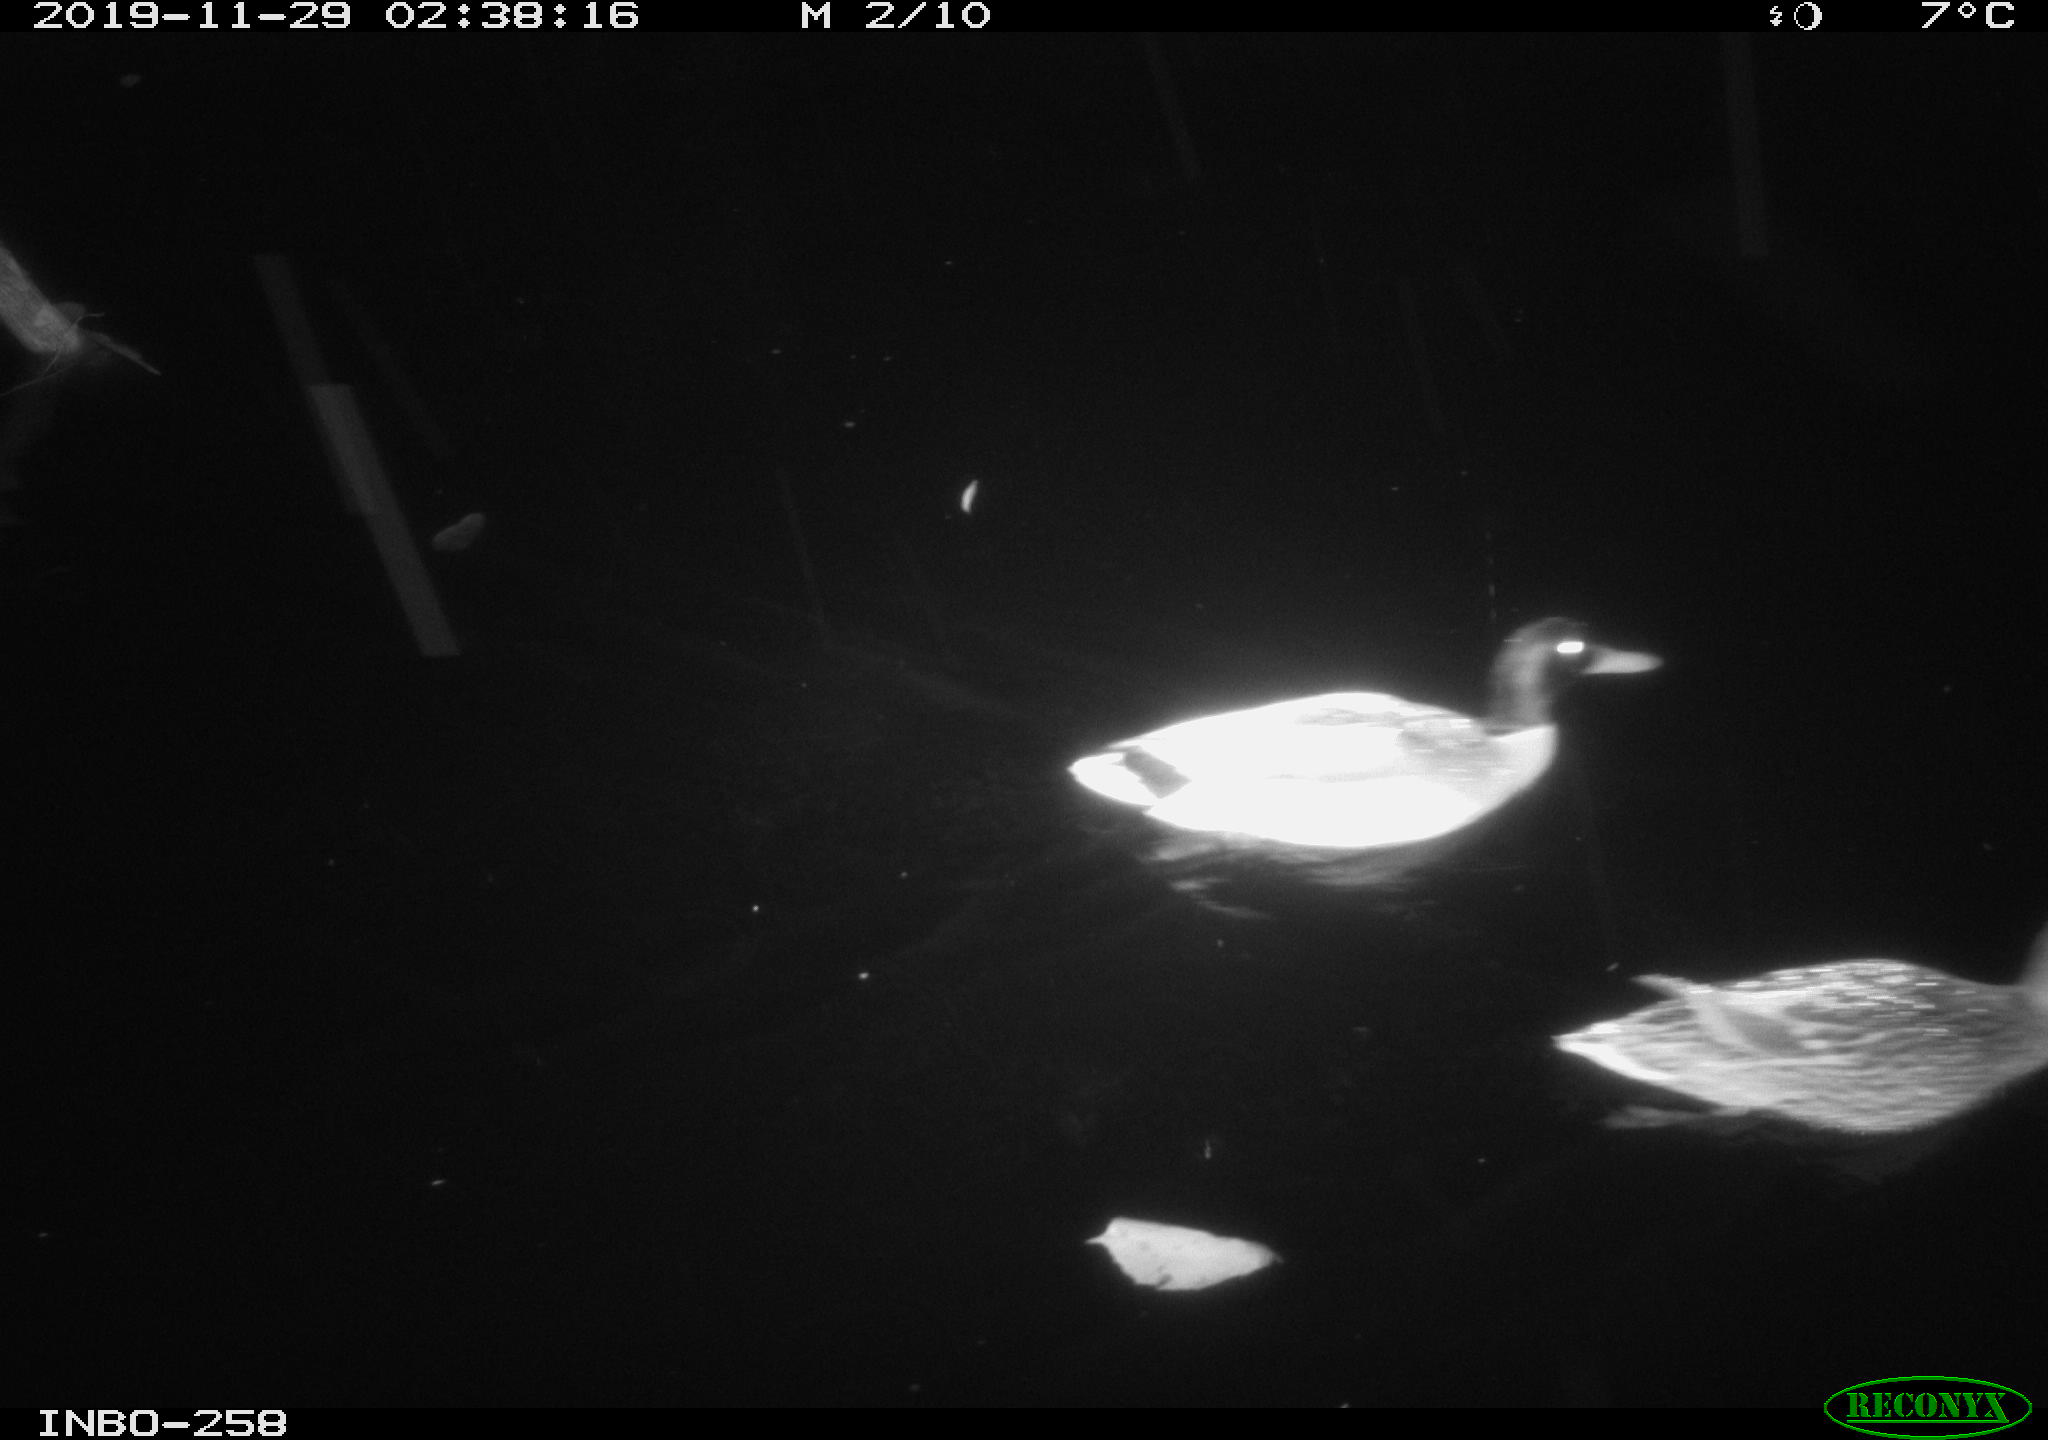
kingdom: Animalia
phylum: Chordata
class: Aves
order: Anseriformes
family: Anatidae
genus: Anas
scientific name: Anas platyrhynchos
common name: Mallard
